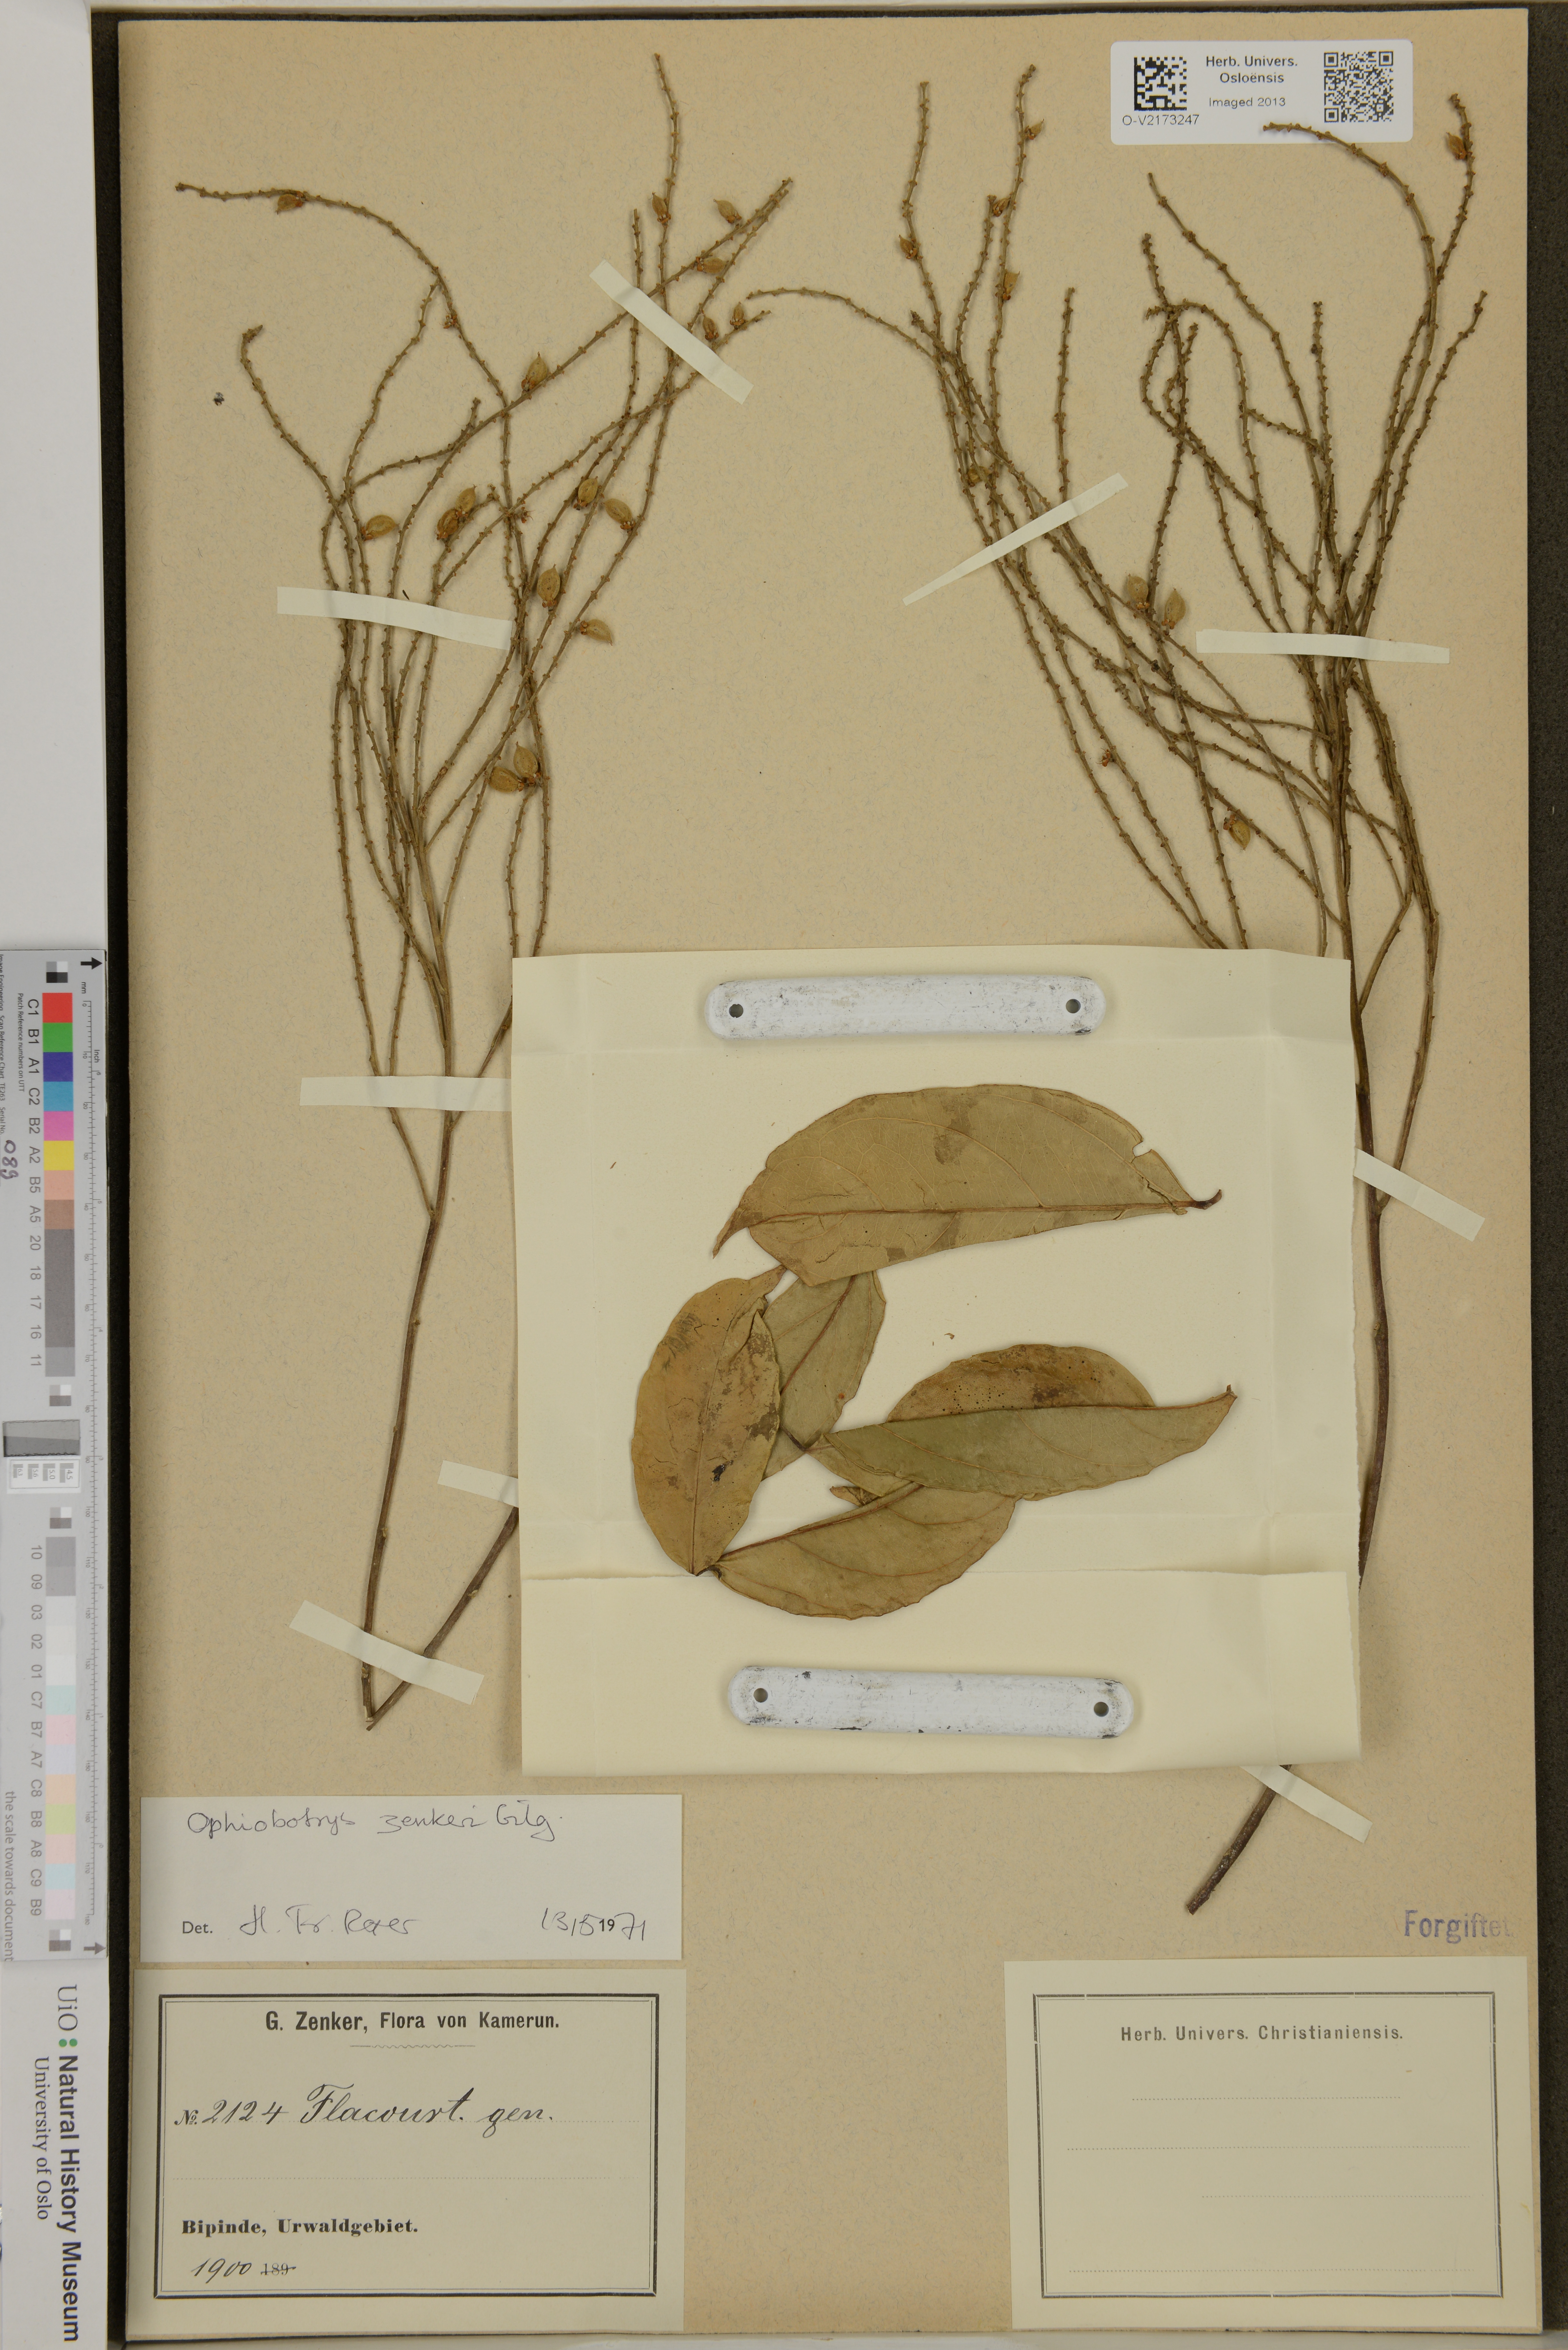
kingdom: Plantae
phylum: Tracheophyta
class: Magnoliopsida
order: Malpighiales
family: Salicaceae
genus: Ophiobotrys
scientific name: Ophiobotrys zenkeri
